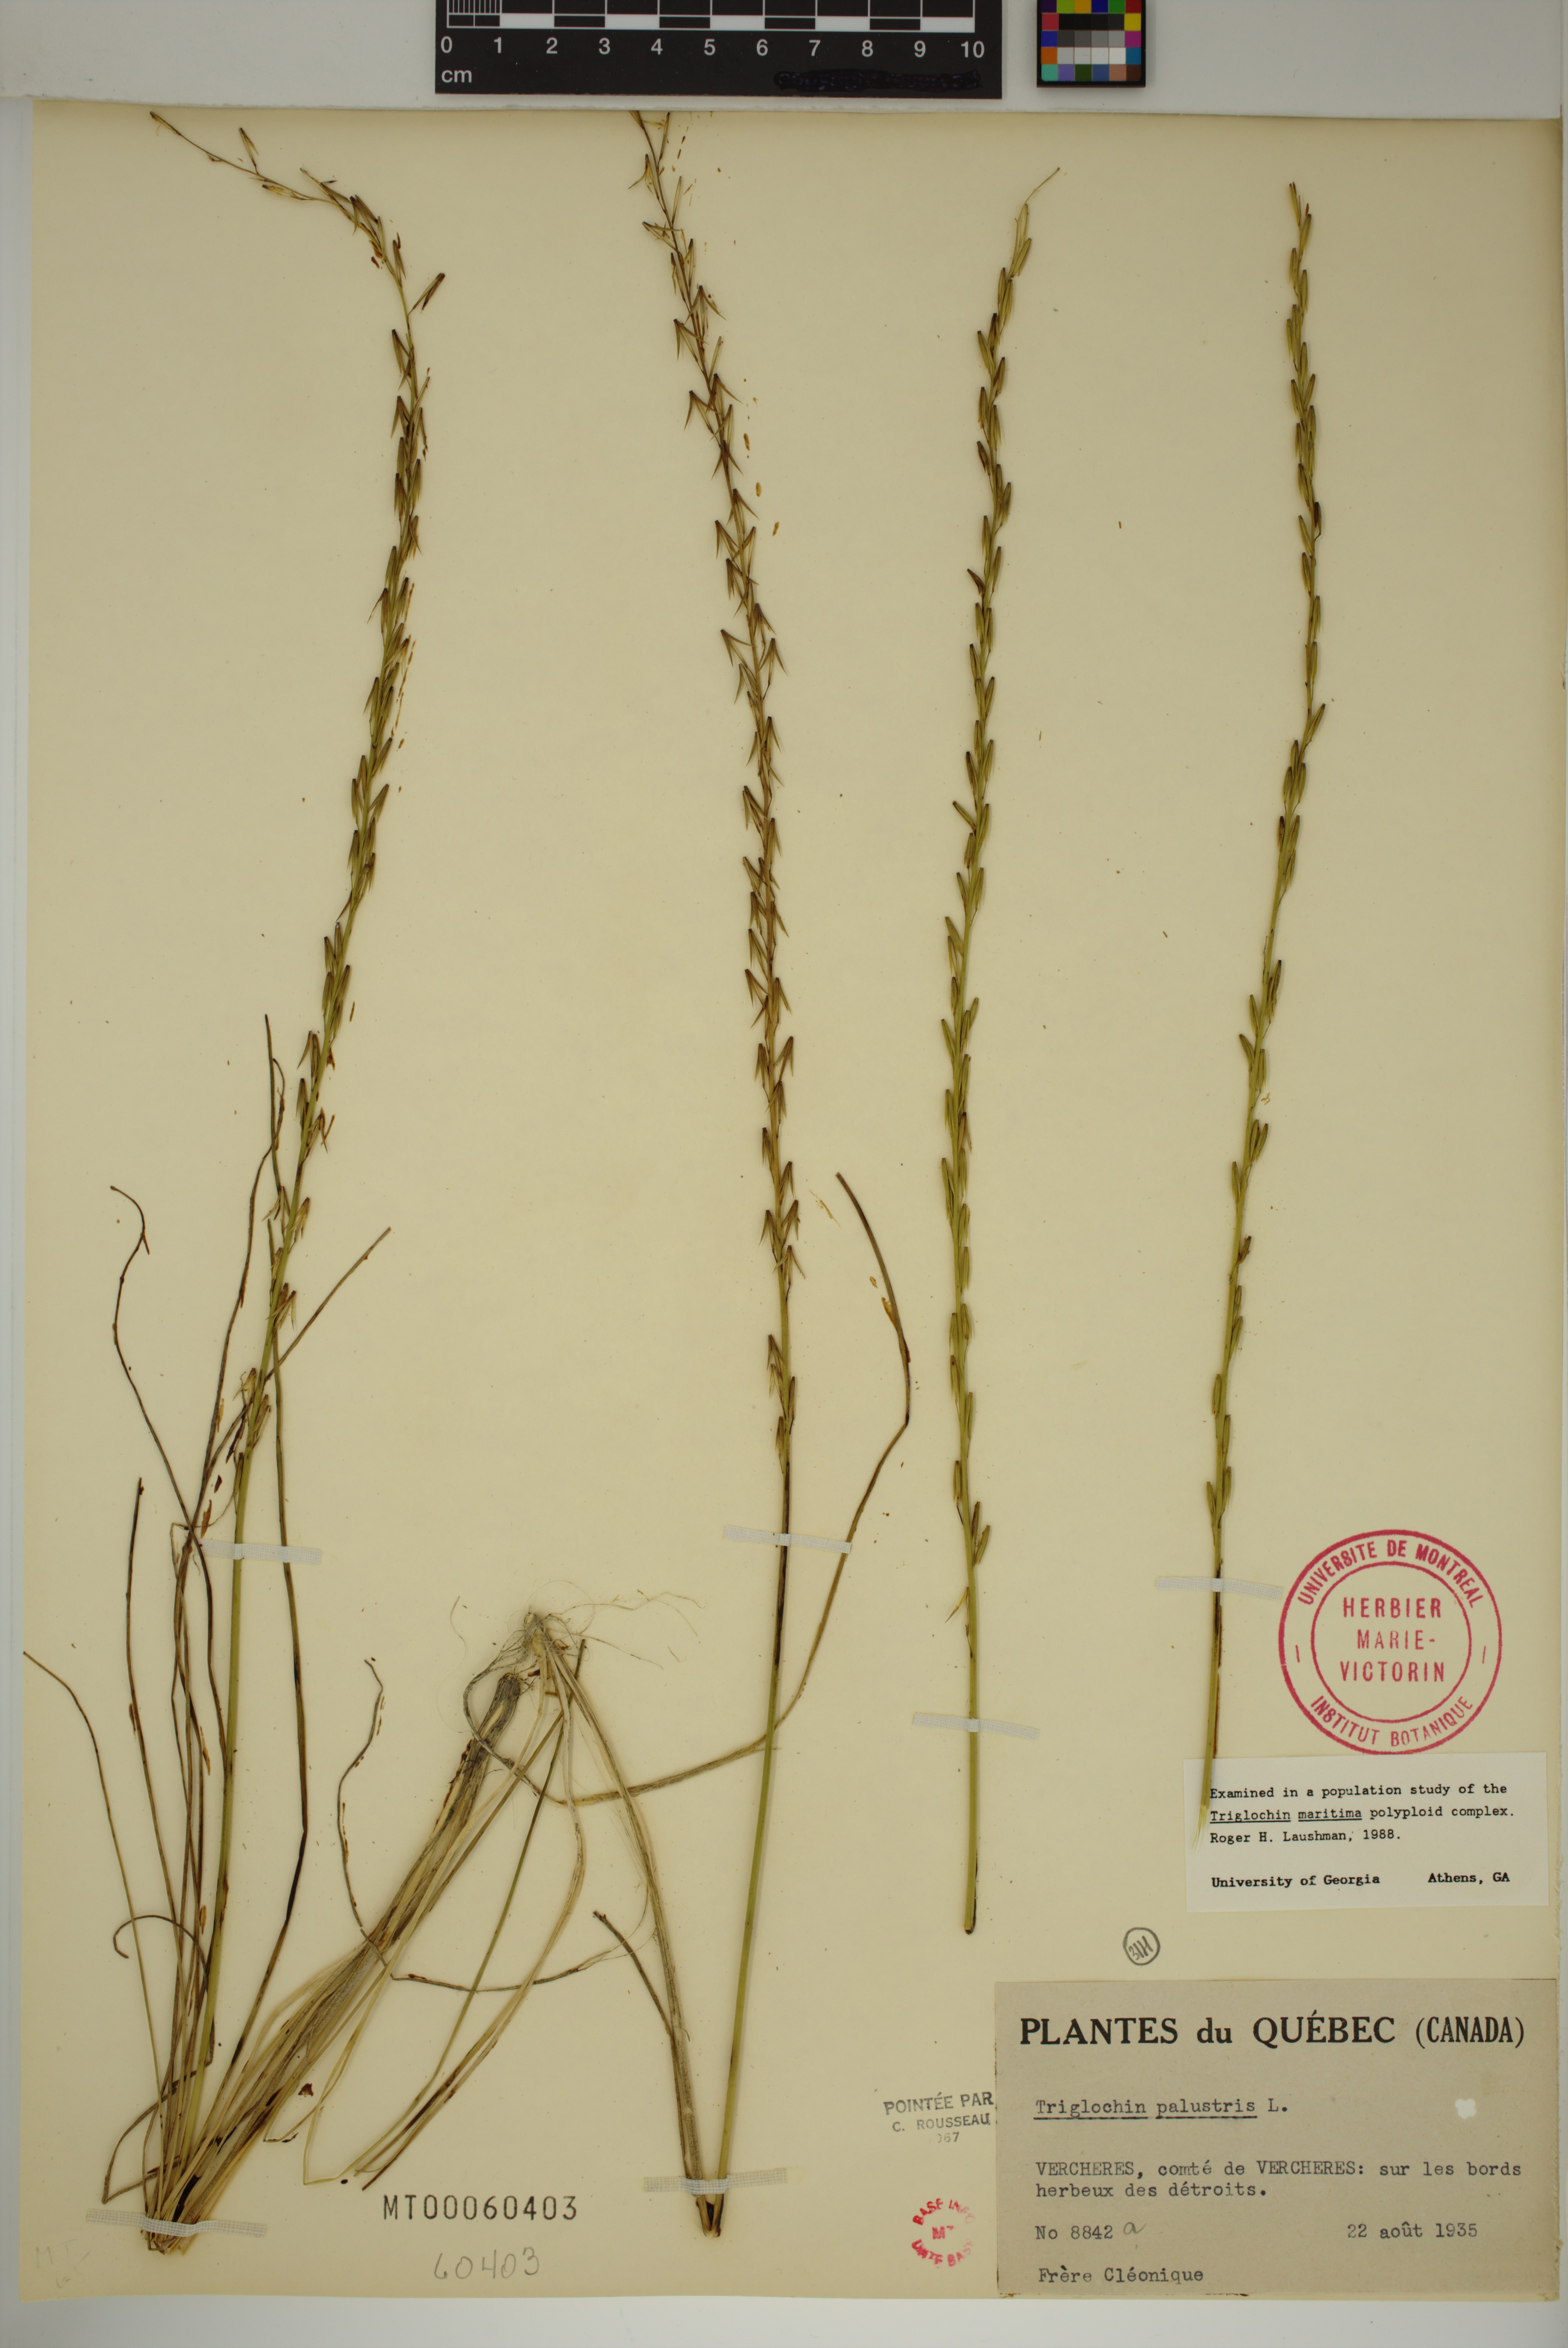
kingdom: Plantae
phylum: Tracheophyta
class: Liliopsida
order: Alismatales
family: Juncaginaceae
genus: Triglochin
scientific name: Triglochin palustris
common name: Marsh arrowgrass
